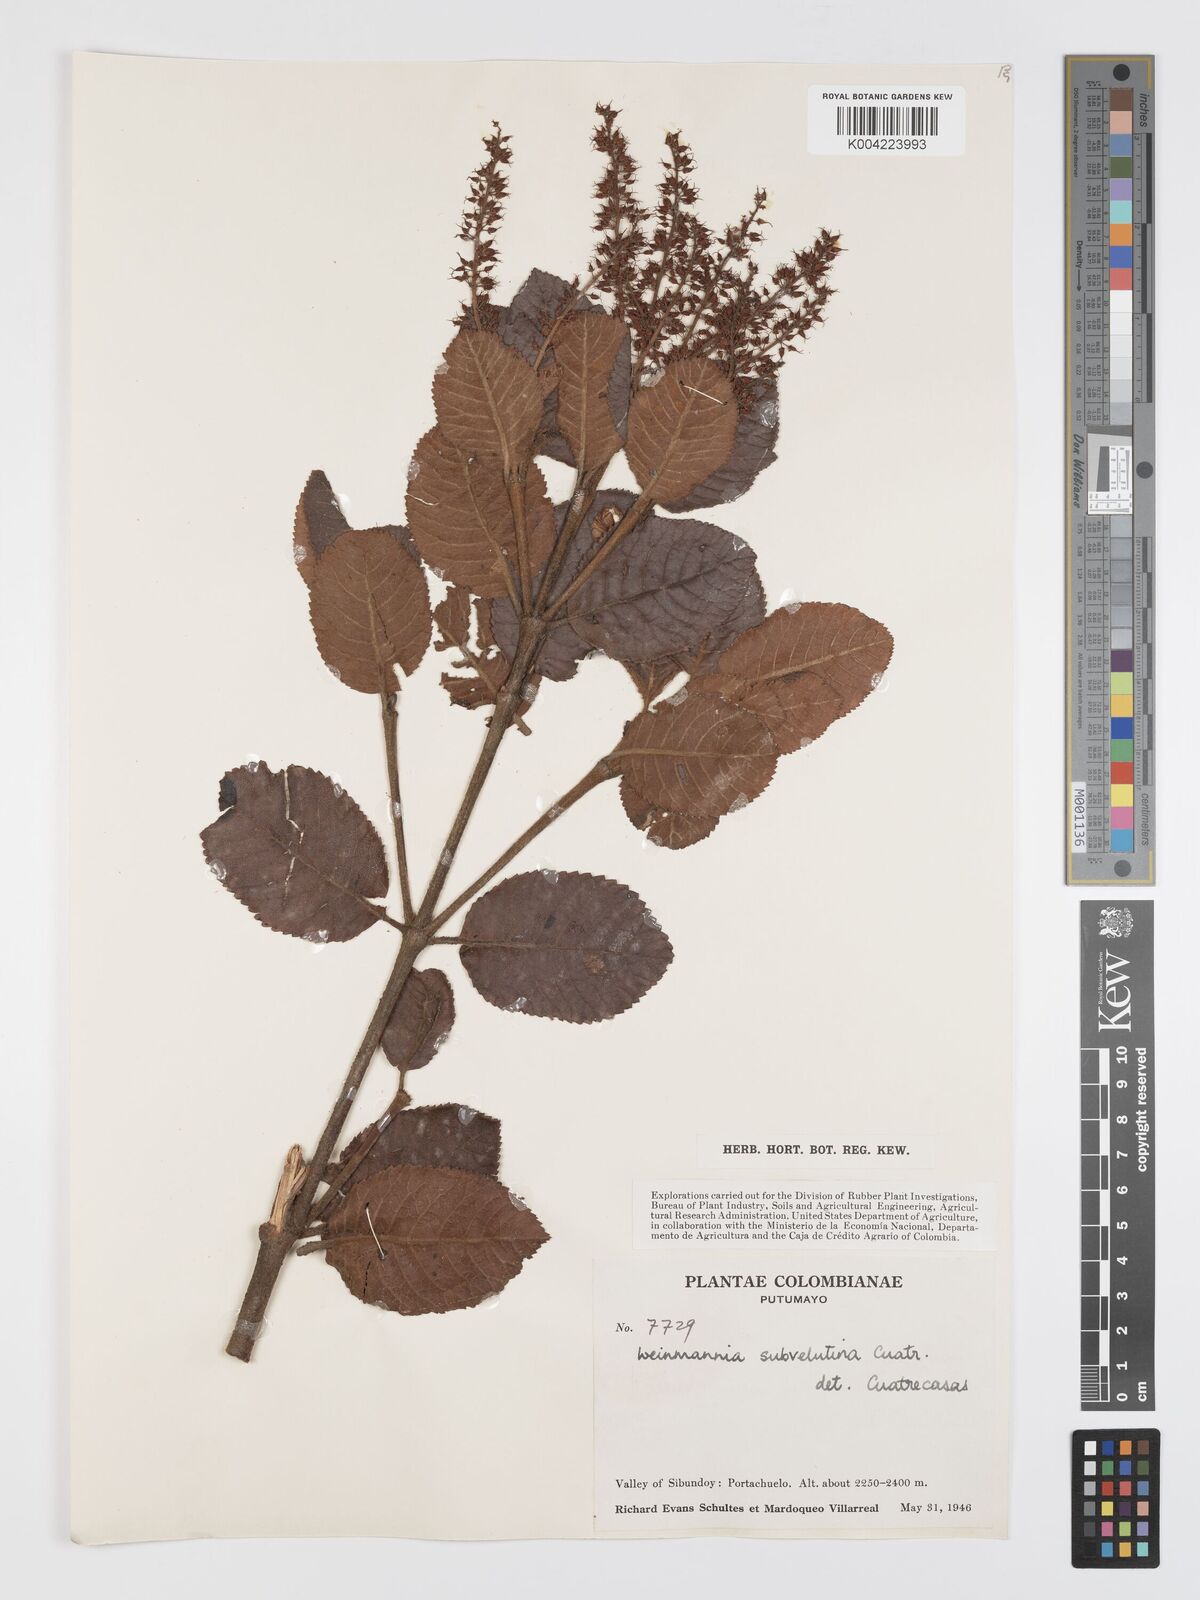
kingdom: Plantae
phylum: Tracheophyta
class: Magnoliopsida
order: Oxalidales
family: Cunoniaceae
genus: Weinmannia
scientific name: Weinmannia rollottii
